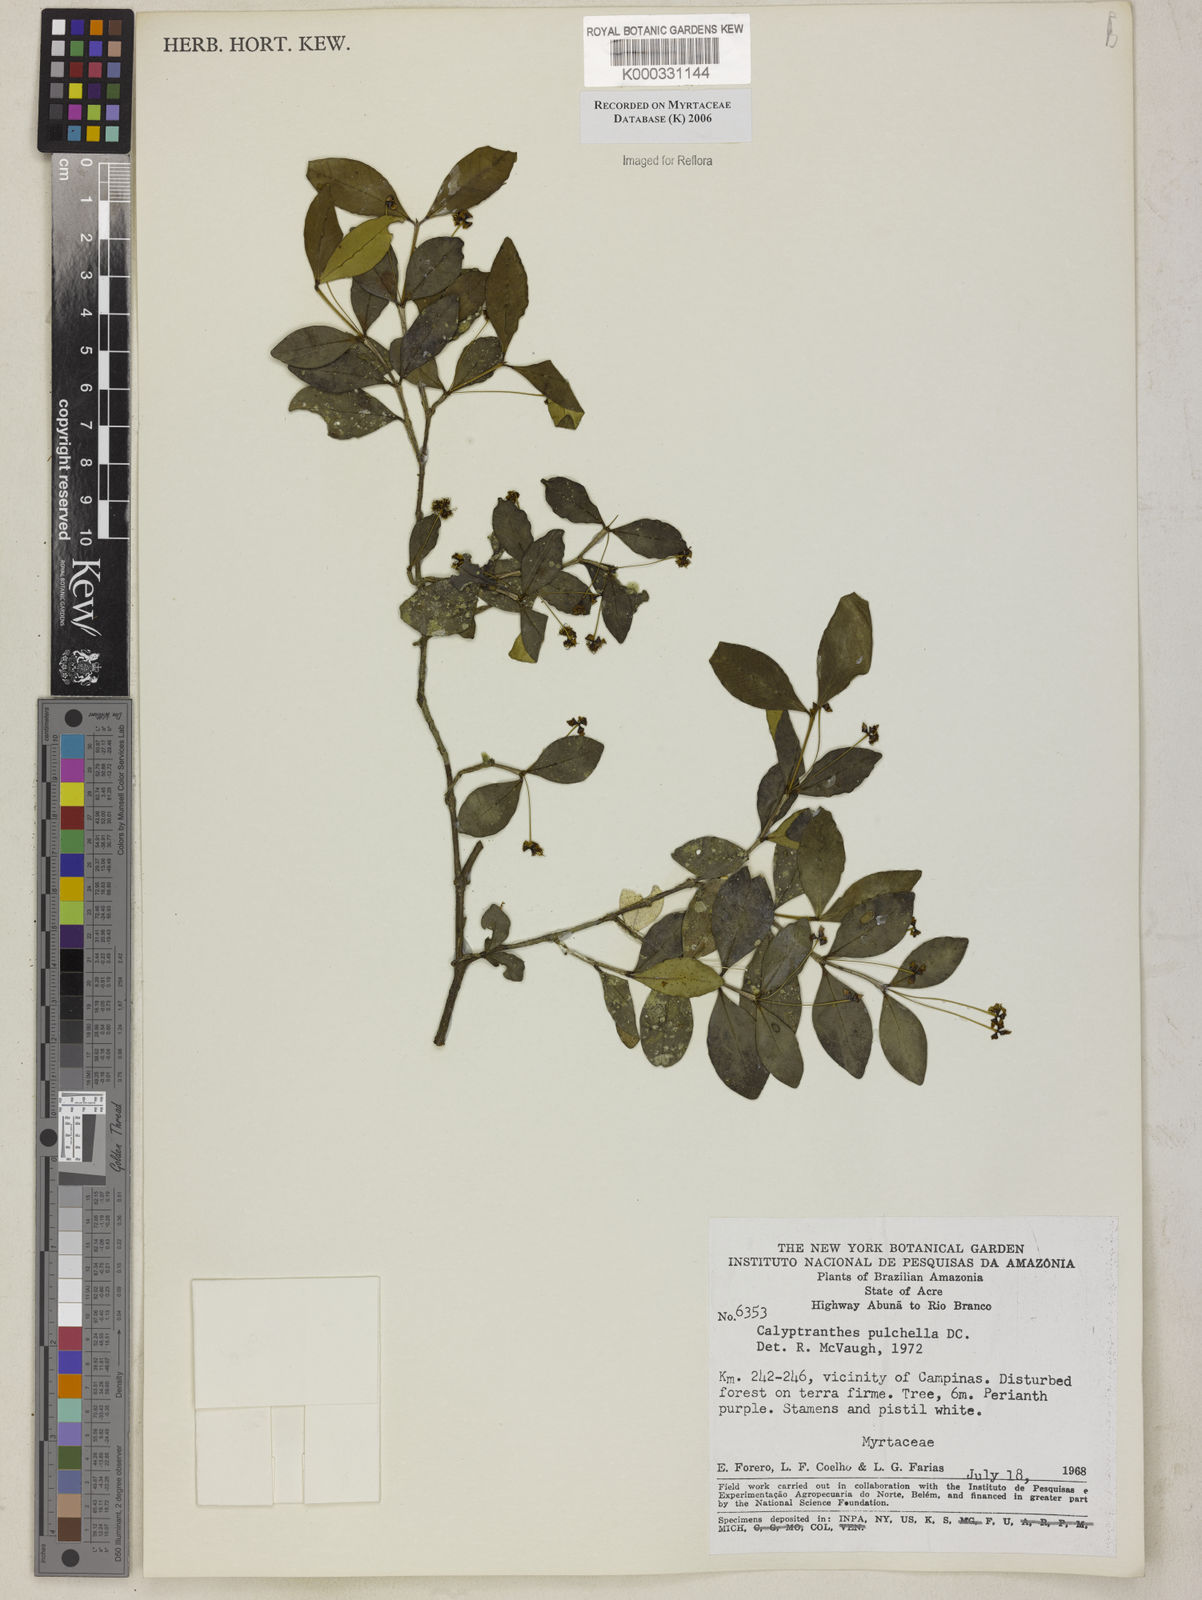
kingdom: Plantae
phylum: Tracheophyta
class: Magnoliopsida
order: Myrtales
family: Myrtaceae
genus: Myrcia
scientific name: Myrcia pulchella
